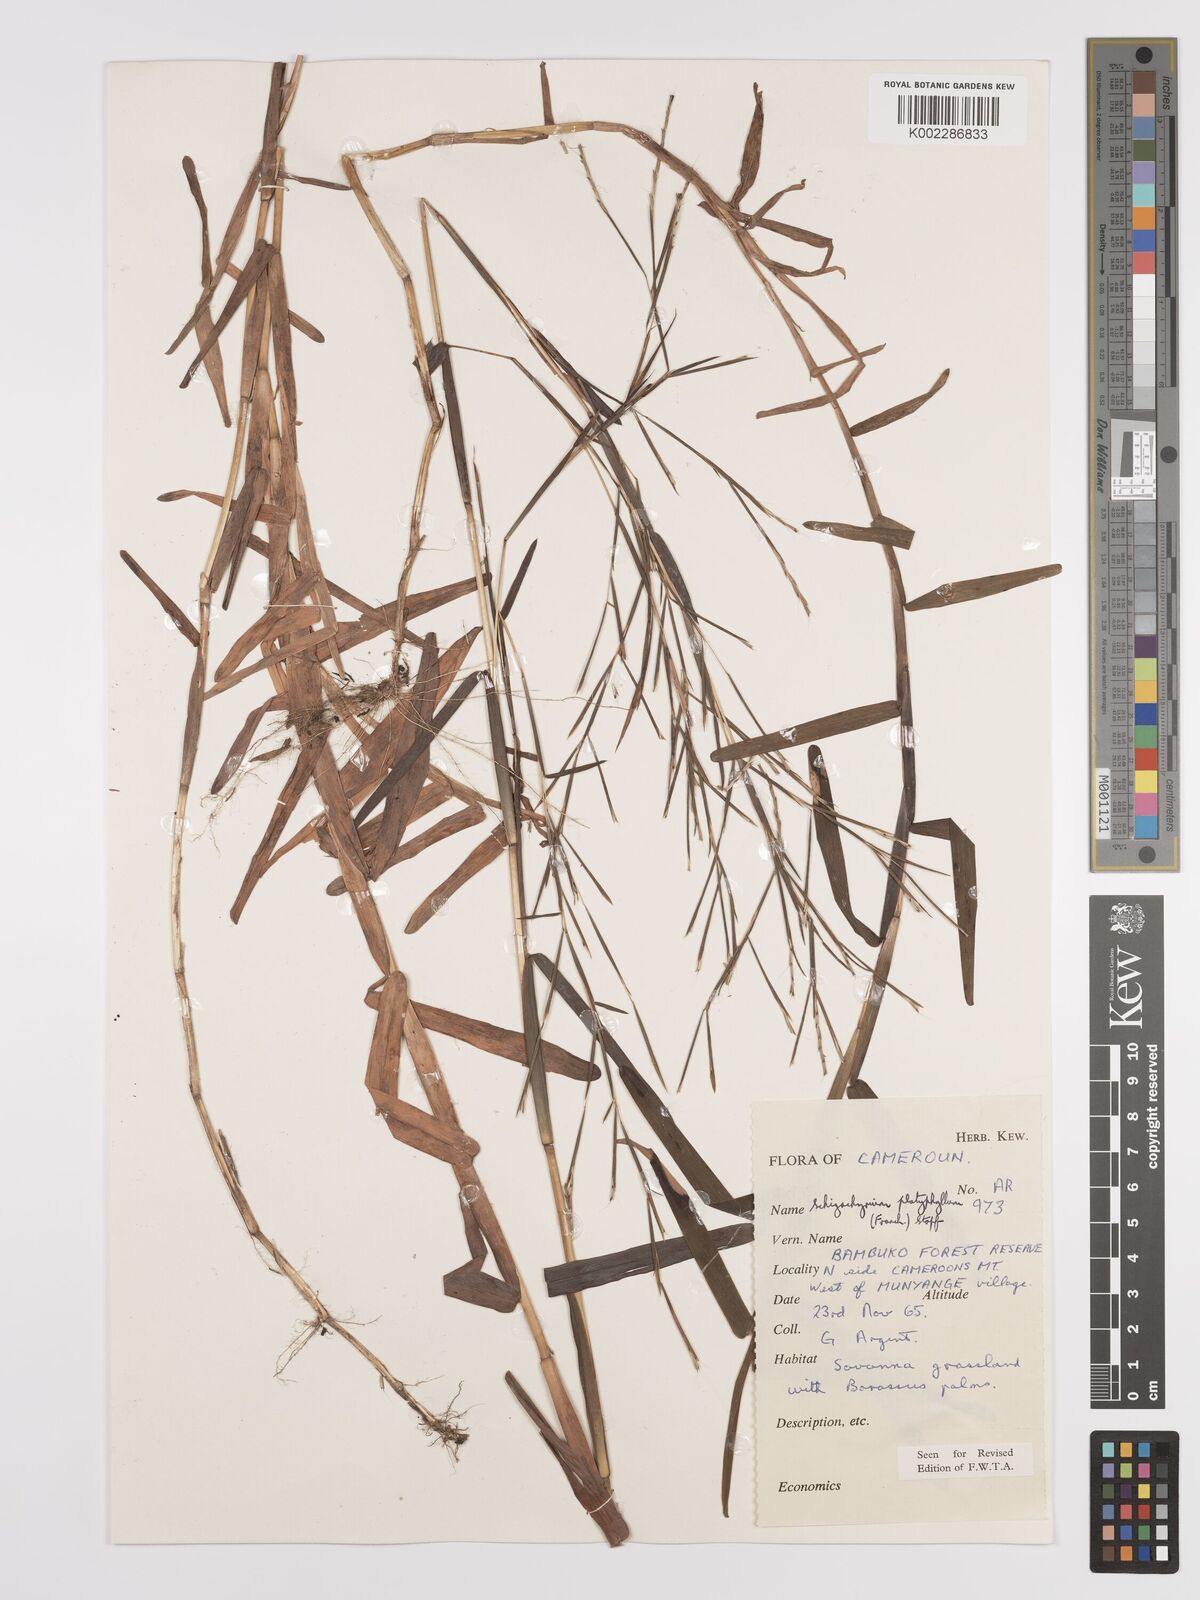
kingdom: Plantae
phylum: Tracheophyta
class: Liliopsida
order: Poales
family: Poaceae
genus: Schizachyrium
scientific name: Schizachyrium platyphyllum
